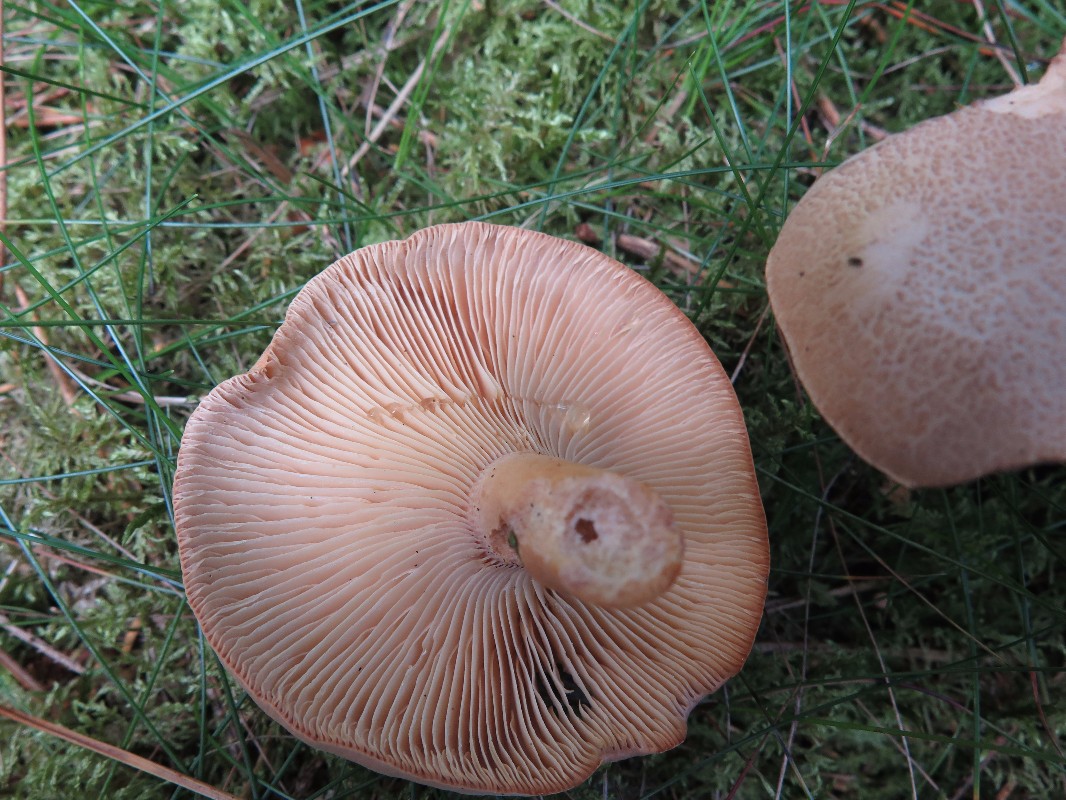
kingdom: Fungi
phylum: Basidiomycota
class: Agaricomycetes
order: Russulales
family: Russulaceae
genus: Lactarius
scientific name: Lactarius helvus
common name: mose-mælkehat
